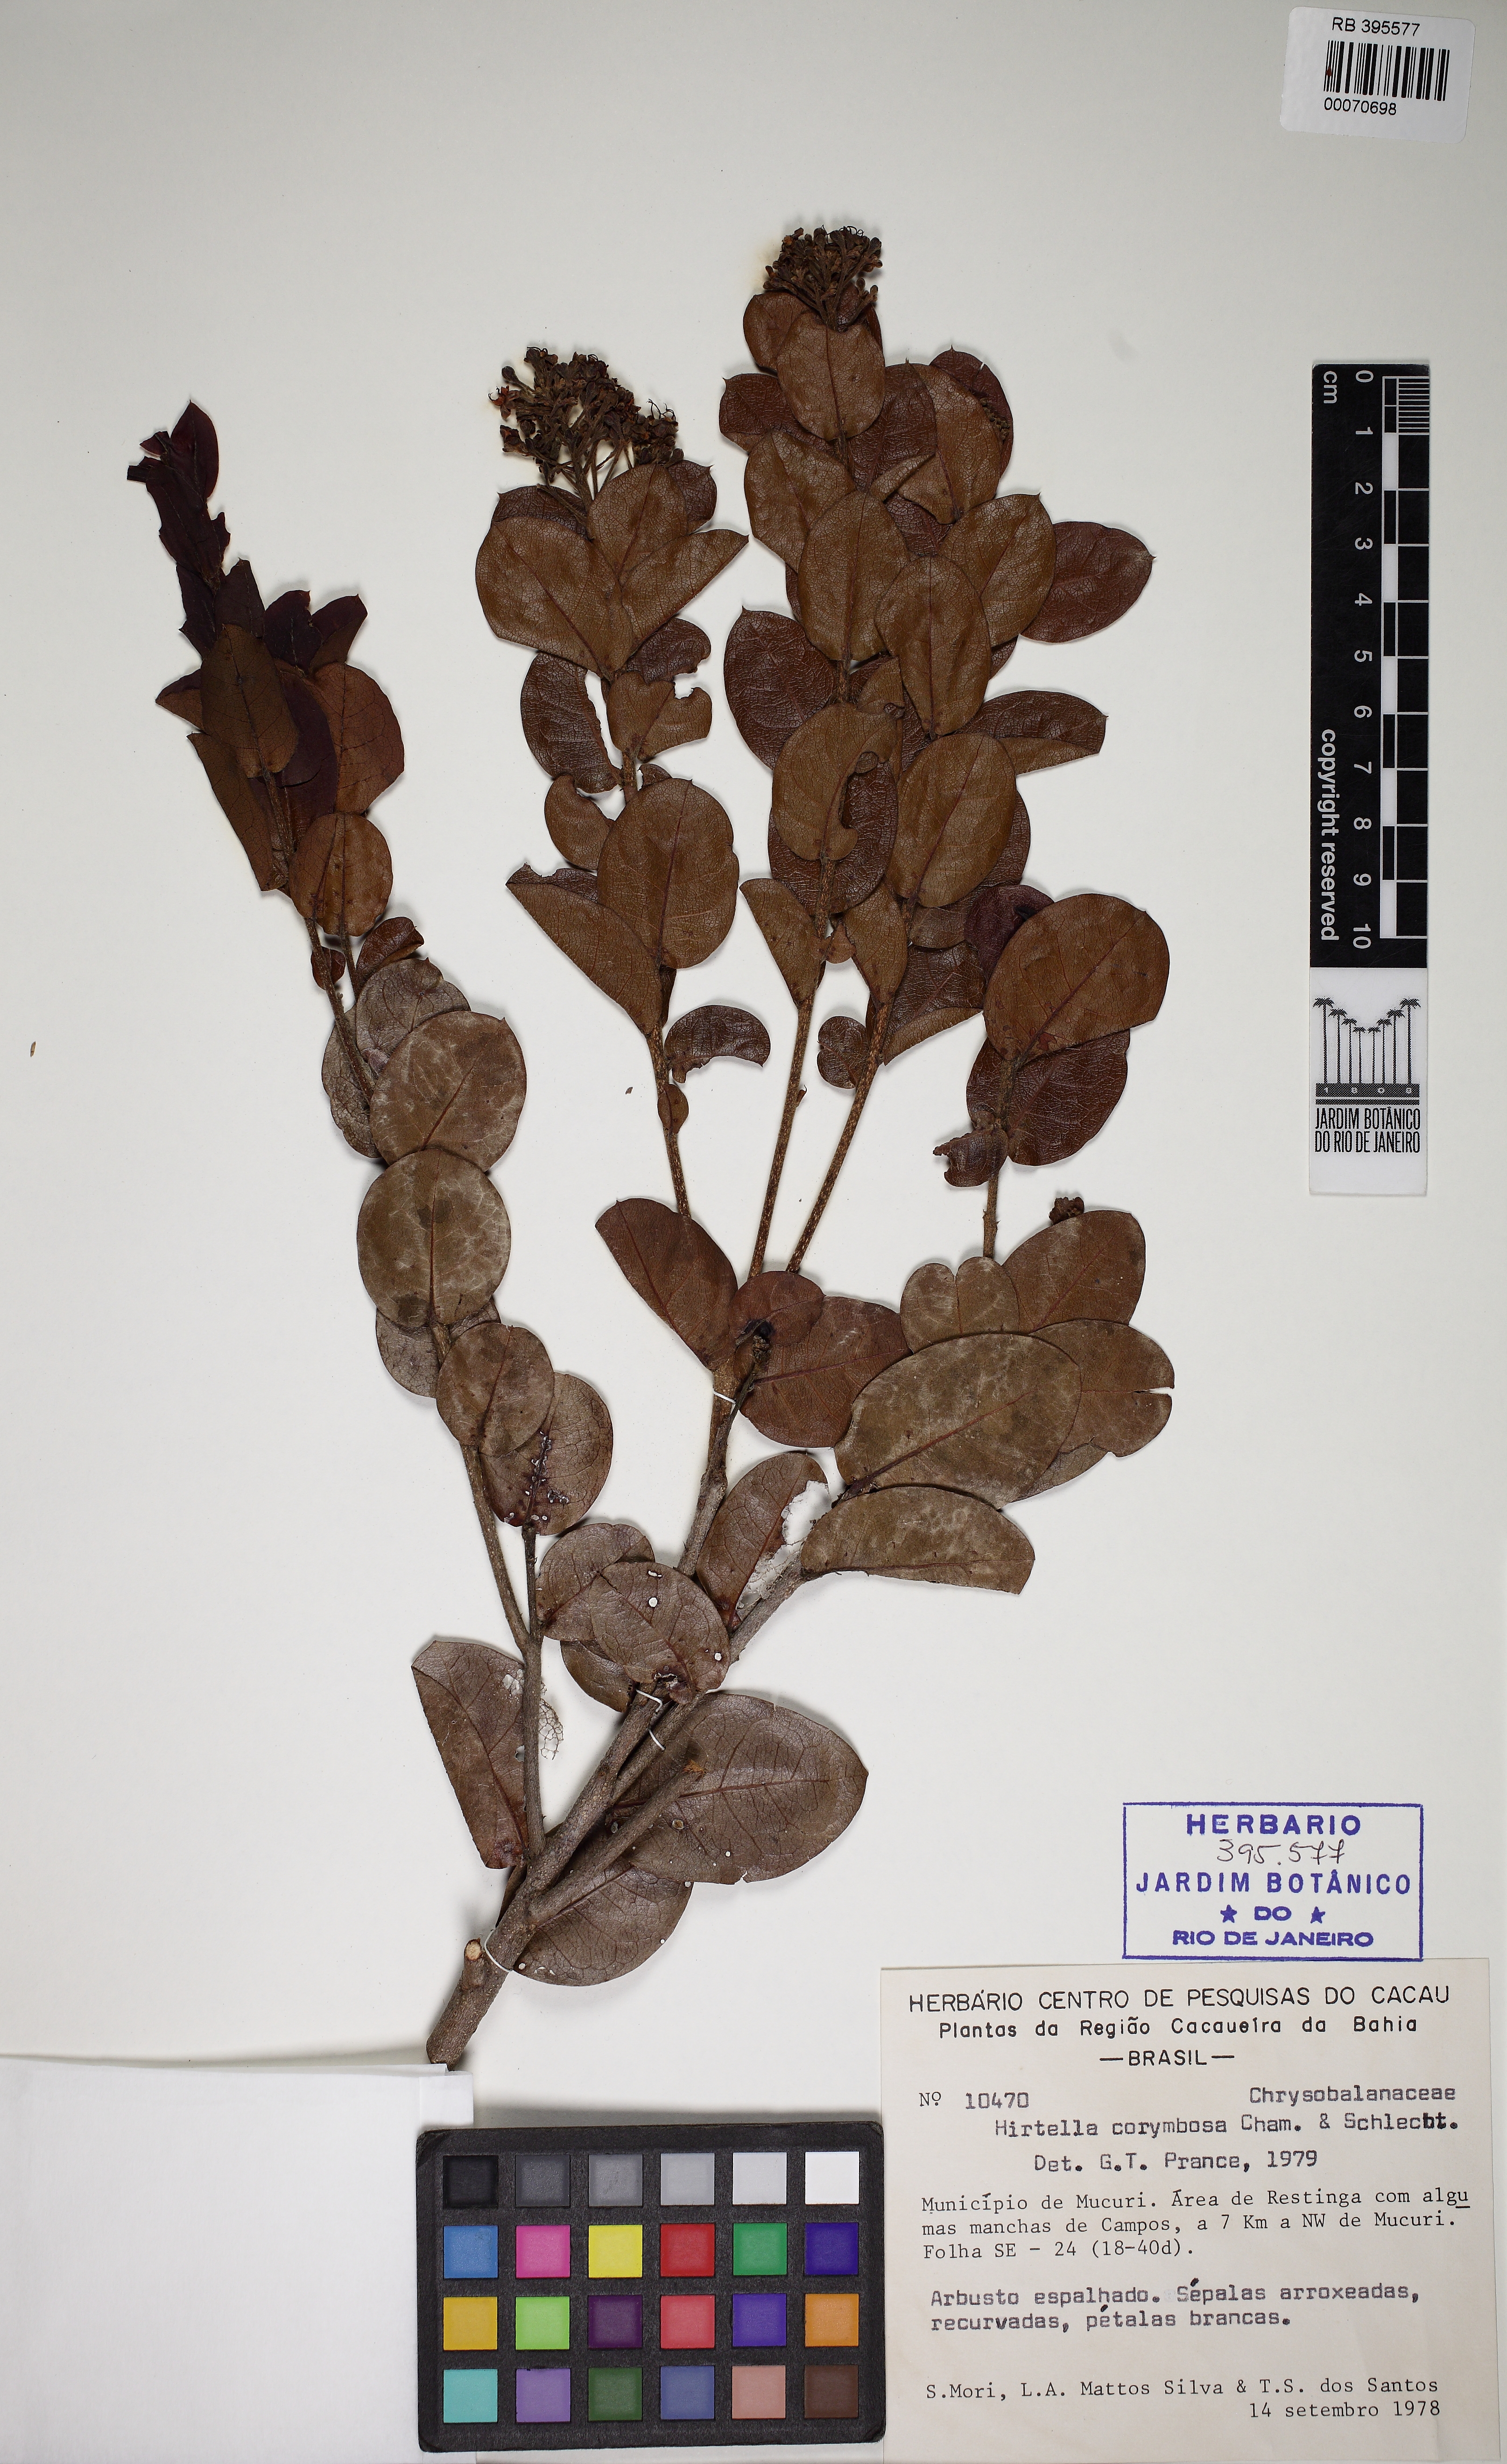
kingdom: Plantae
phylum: Tracheophyta
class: Magnoliopsida
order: Malpighiales
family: Chrysobalanaceae
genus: Hirtella
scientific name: Hirtella corymbosa
